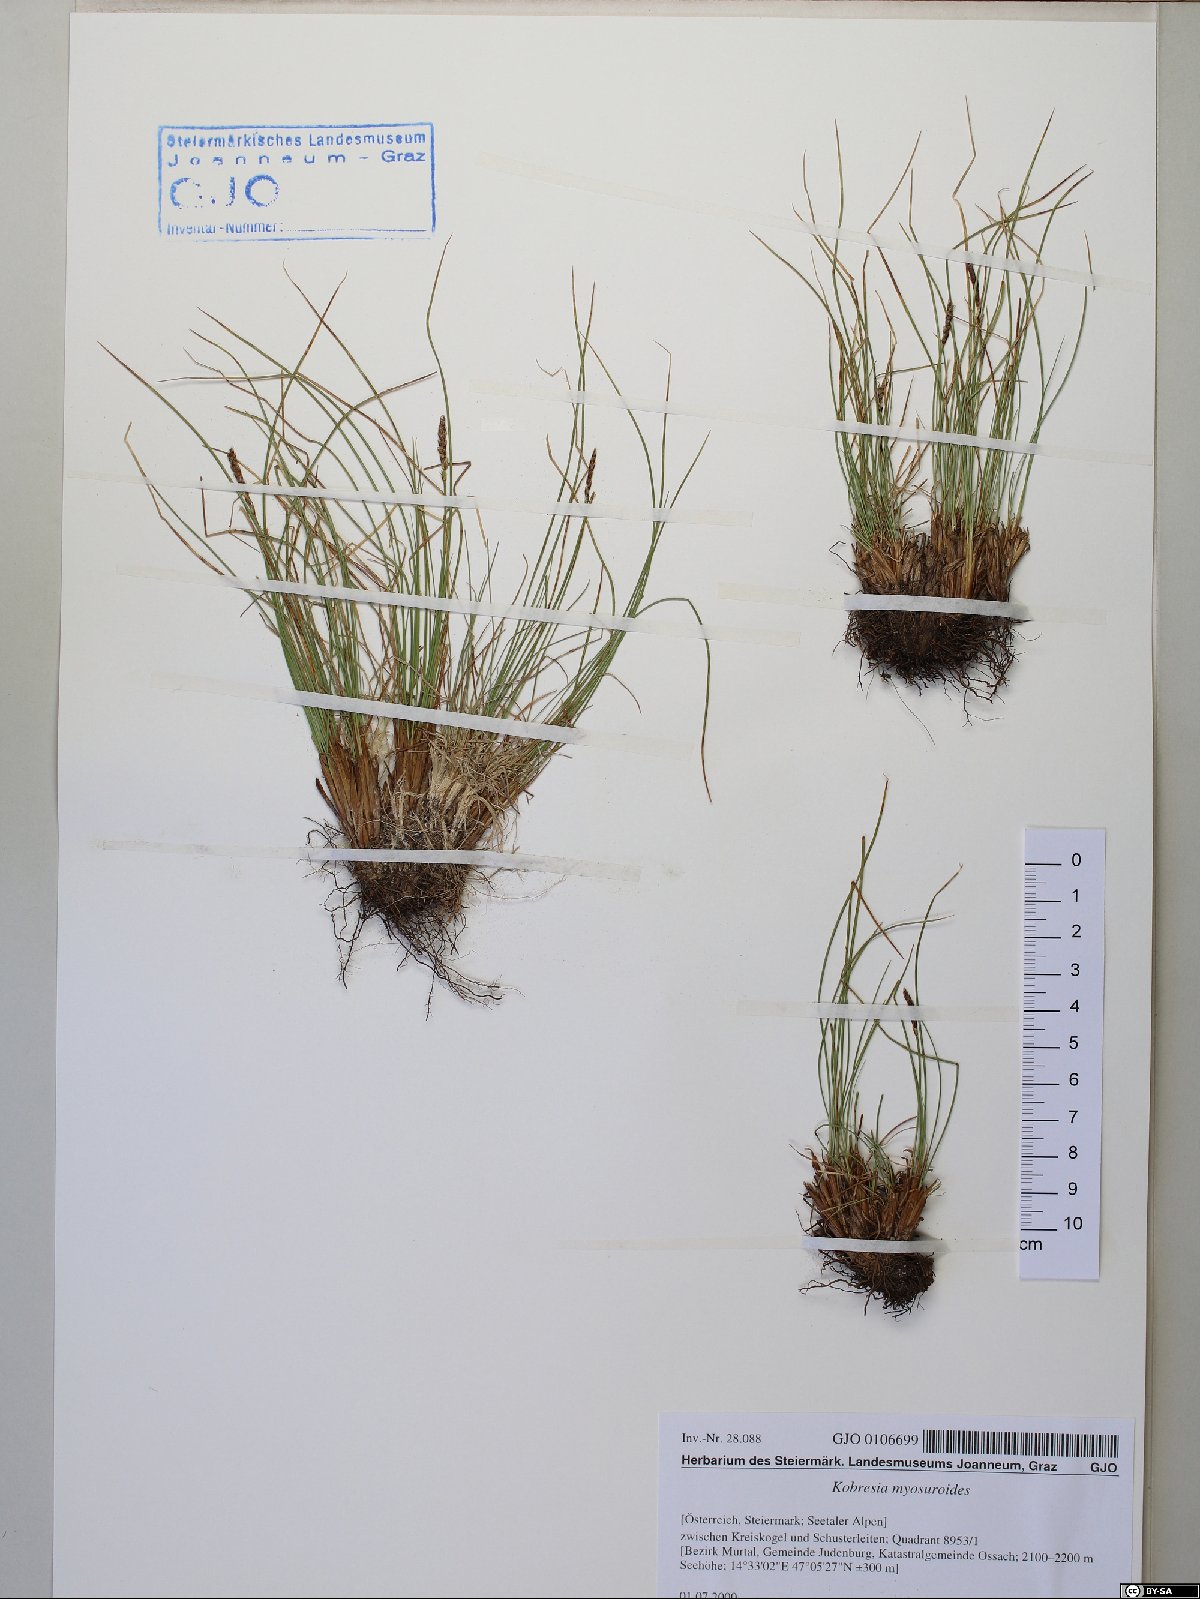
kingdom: Plantae
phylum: Tracheophyta
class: Liliopsida
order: Poales
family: Cyperaceae
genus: Carex
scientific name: Carex myosuroides
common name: Bellard's bog sedge
